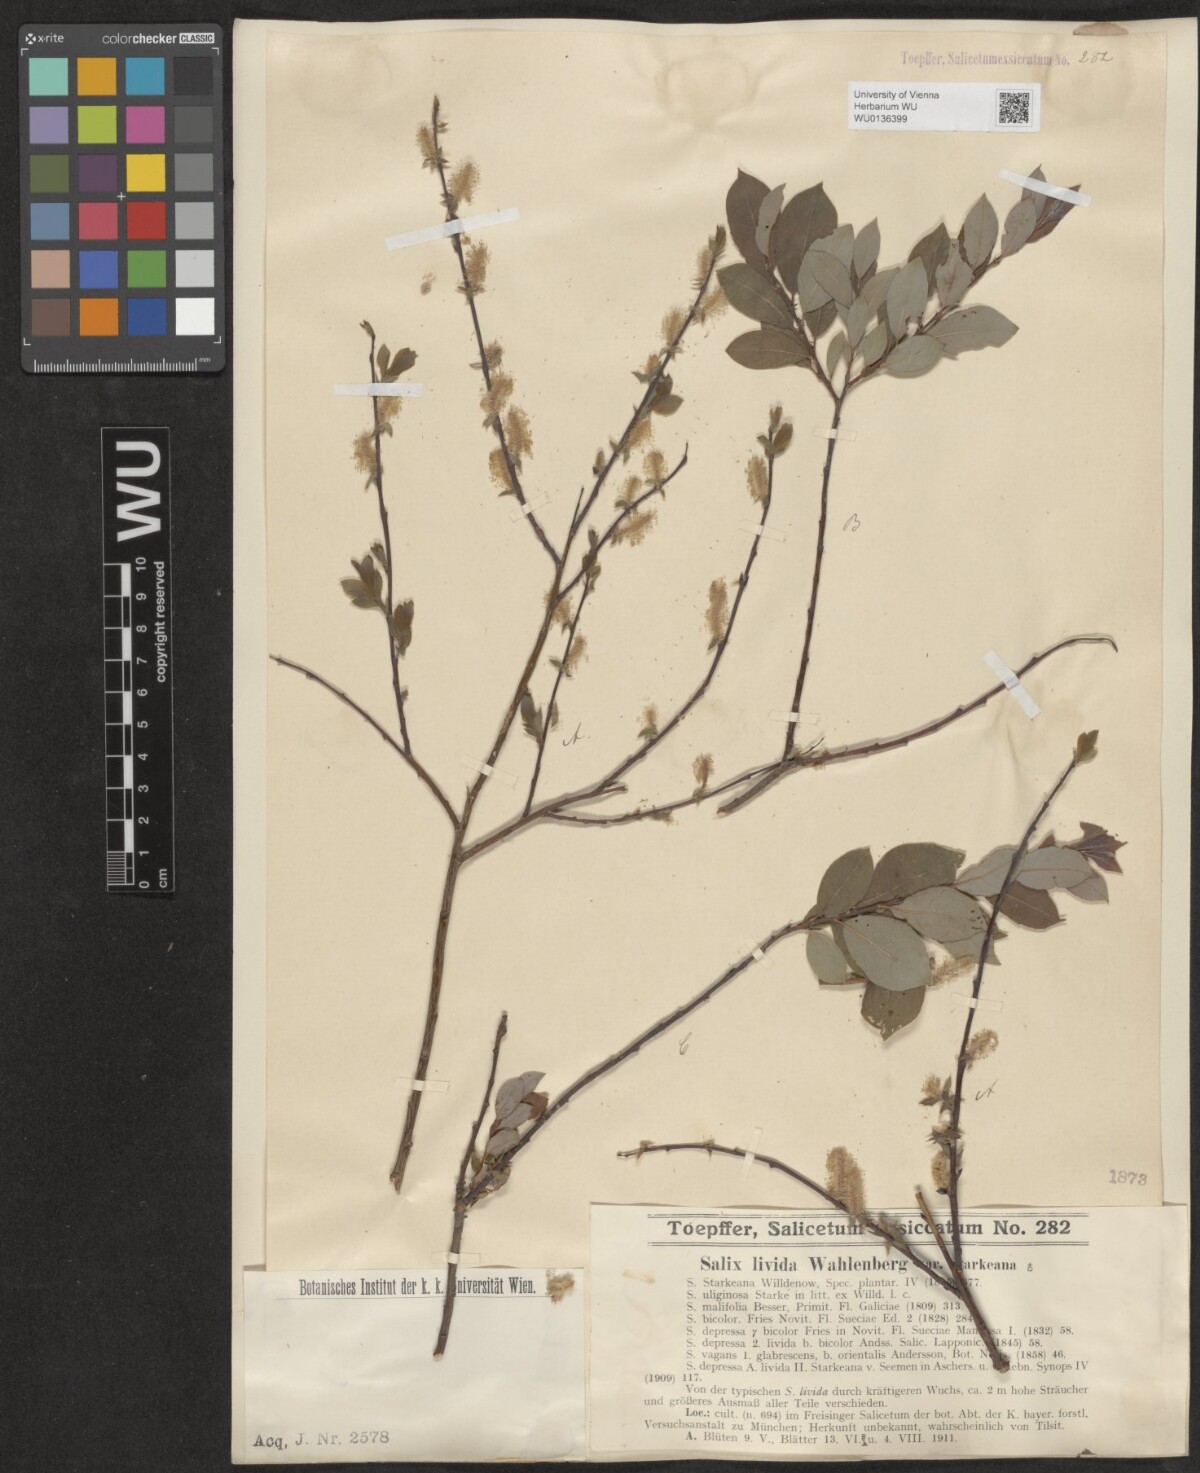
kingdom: Plantae
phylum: Tracheophyta
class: Magnoliopsida
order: Malpighiales
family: Salicaceae
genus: Salix
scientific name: Salix lanata
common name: Woolly willow
